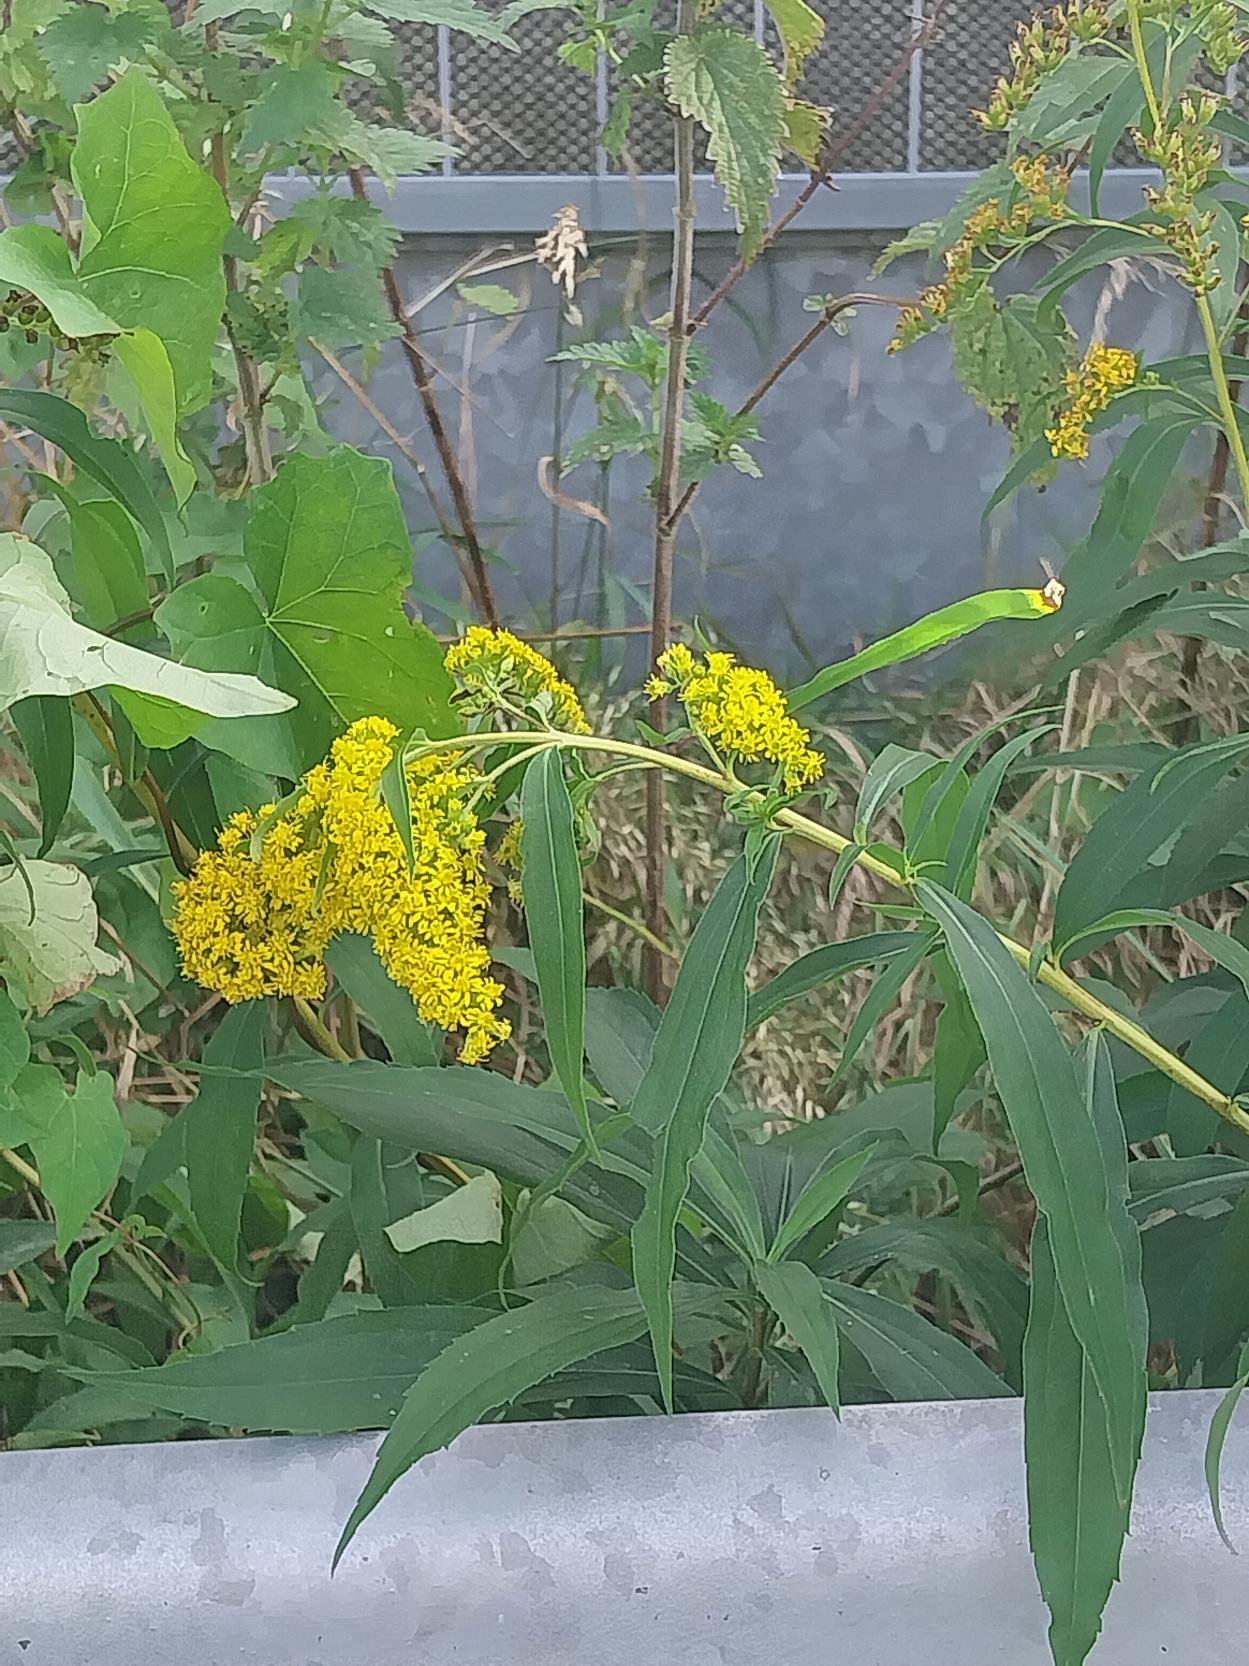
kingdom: Plantae
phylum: Tracheophyta
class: Magnoliopsida
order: Asterales
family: Asteraceae
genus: Solidago
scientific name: Solidago gigantea
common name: Sildig gyldenris
